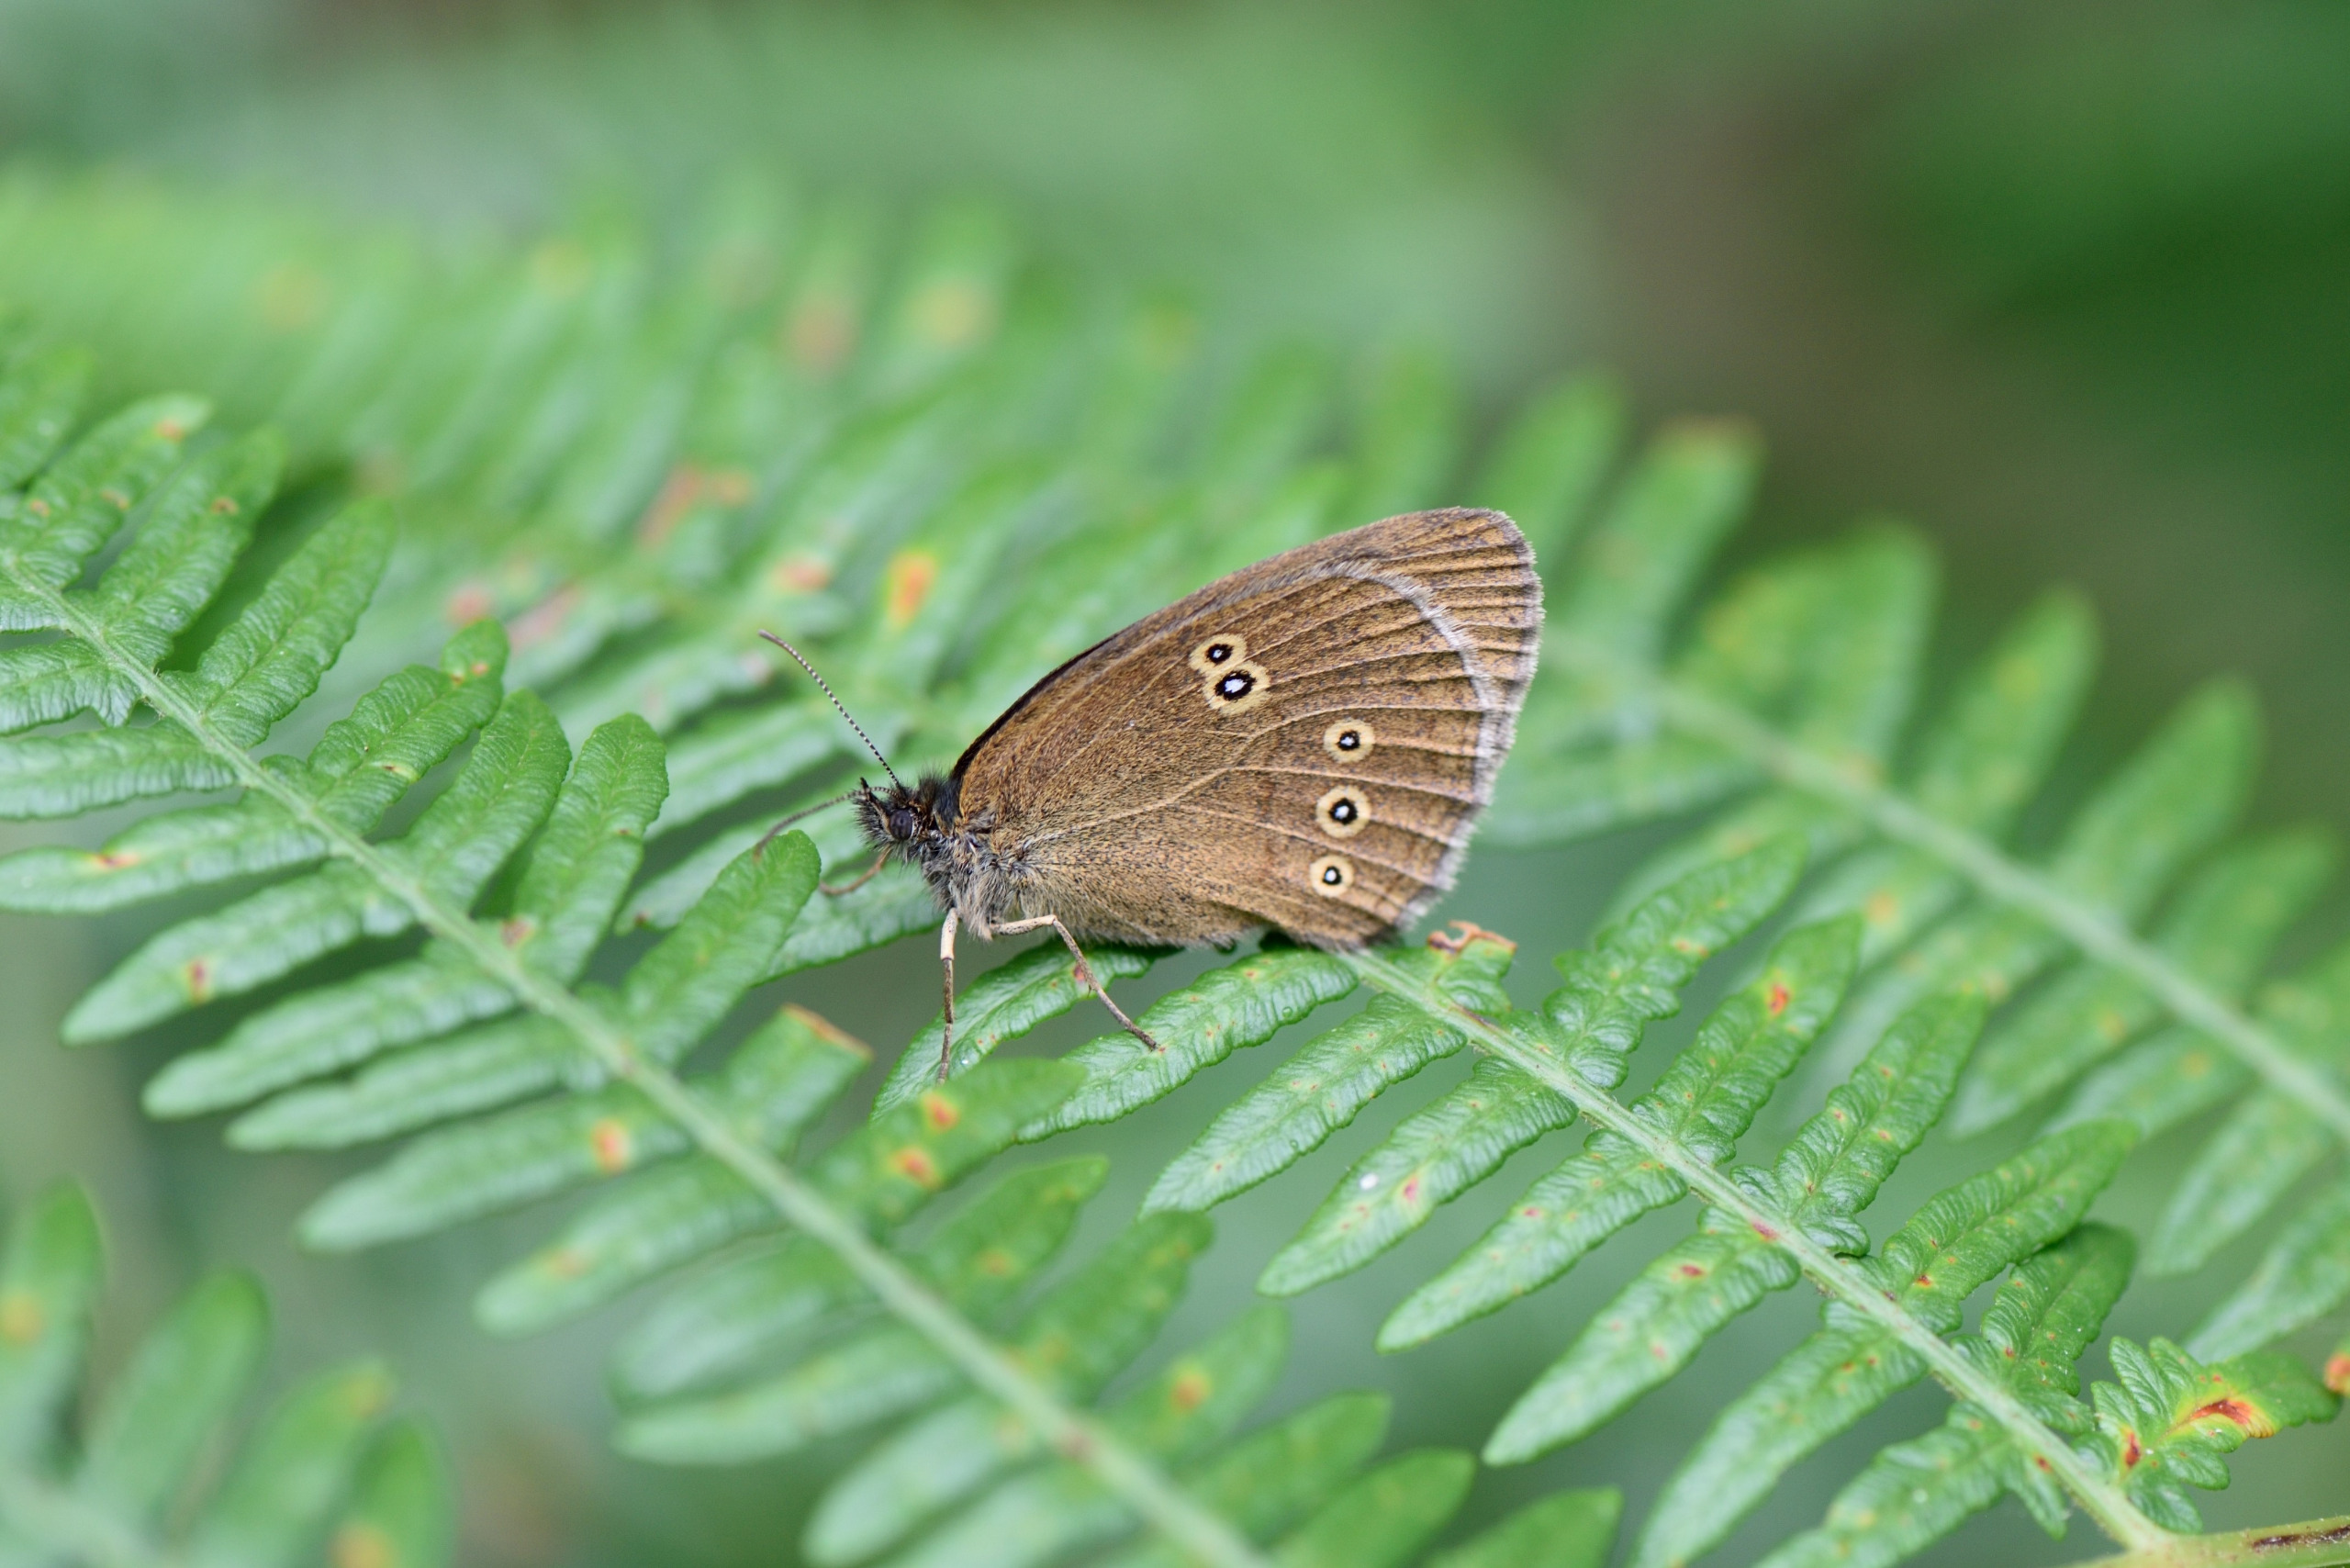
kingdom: Animalia
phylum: Arthropoda
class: Insecta
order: Lepidoptera
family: Nymphalidae
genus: Aphantopus
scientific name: Aphantopus hyperantus
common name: Engrandøje
